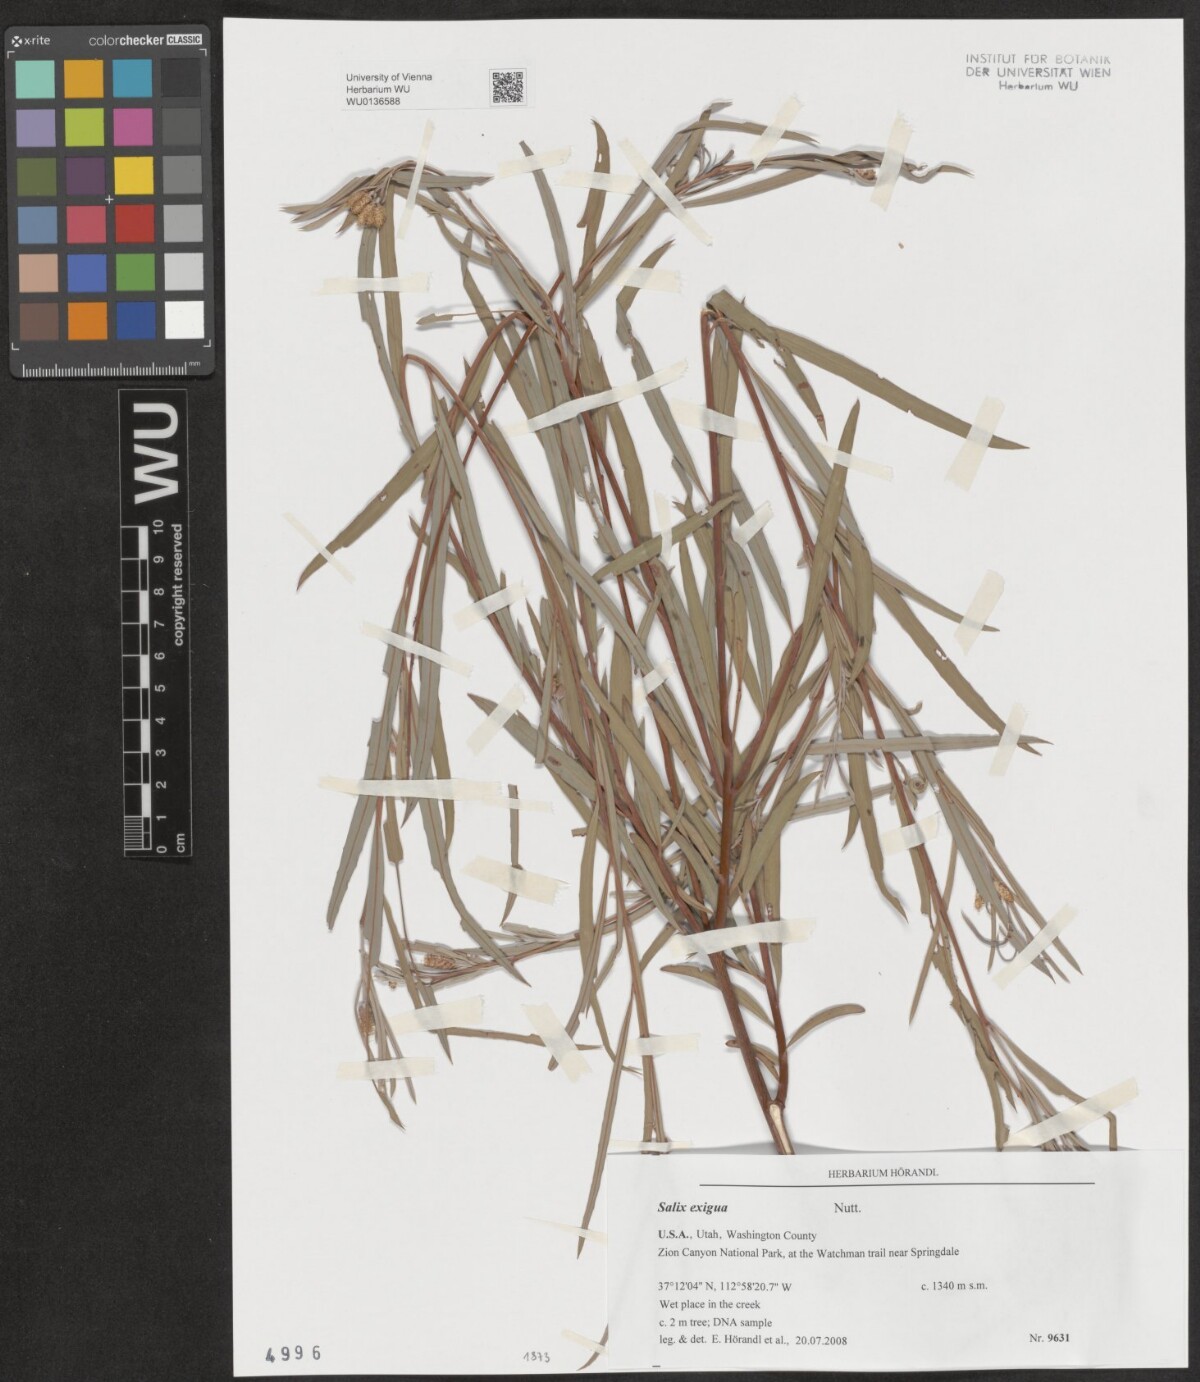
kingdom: Plantae
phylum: Tracheophyta
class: Magnoliopsida
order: Malpighiales
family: Salicaceae
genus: Salix
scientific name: Salix exigua
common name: Coyote willow
